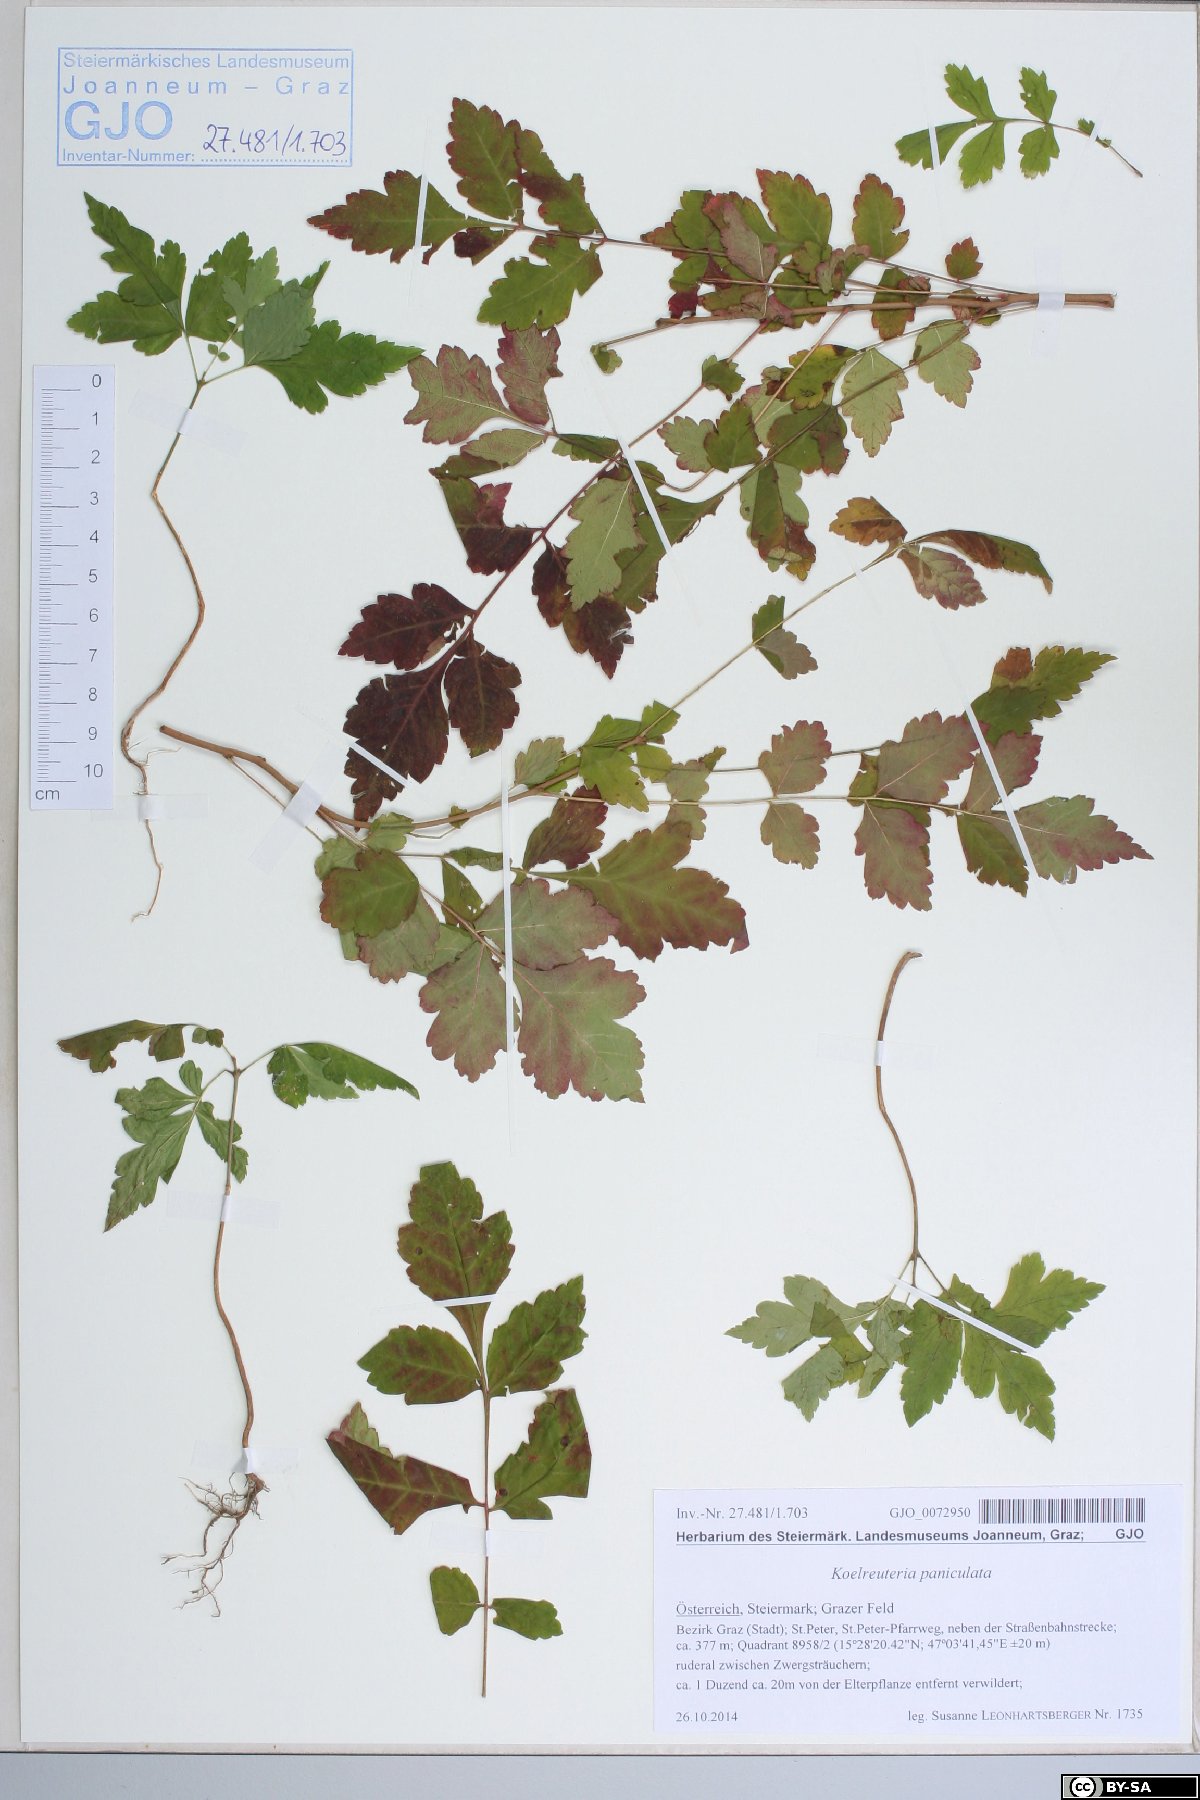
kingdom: Plantae
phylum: Tracheophyta
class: Magnoliopsida
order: Sapindales
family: Sapindaceae
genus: Koelreuteria
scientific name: Koelreuteria paniculata
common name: Pride-of-india
